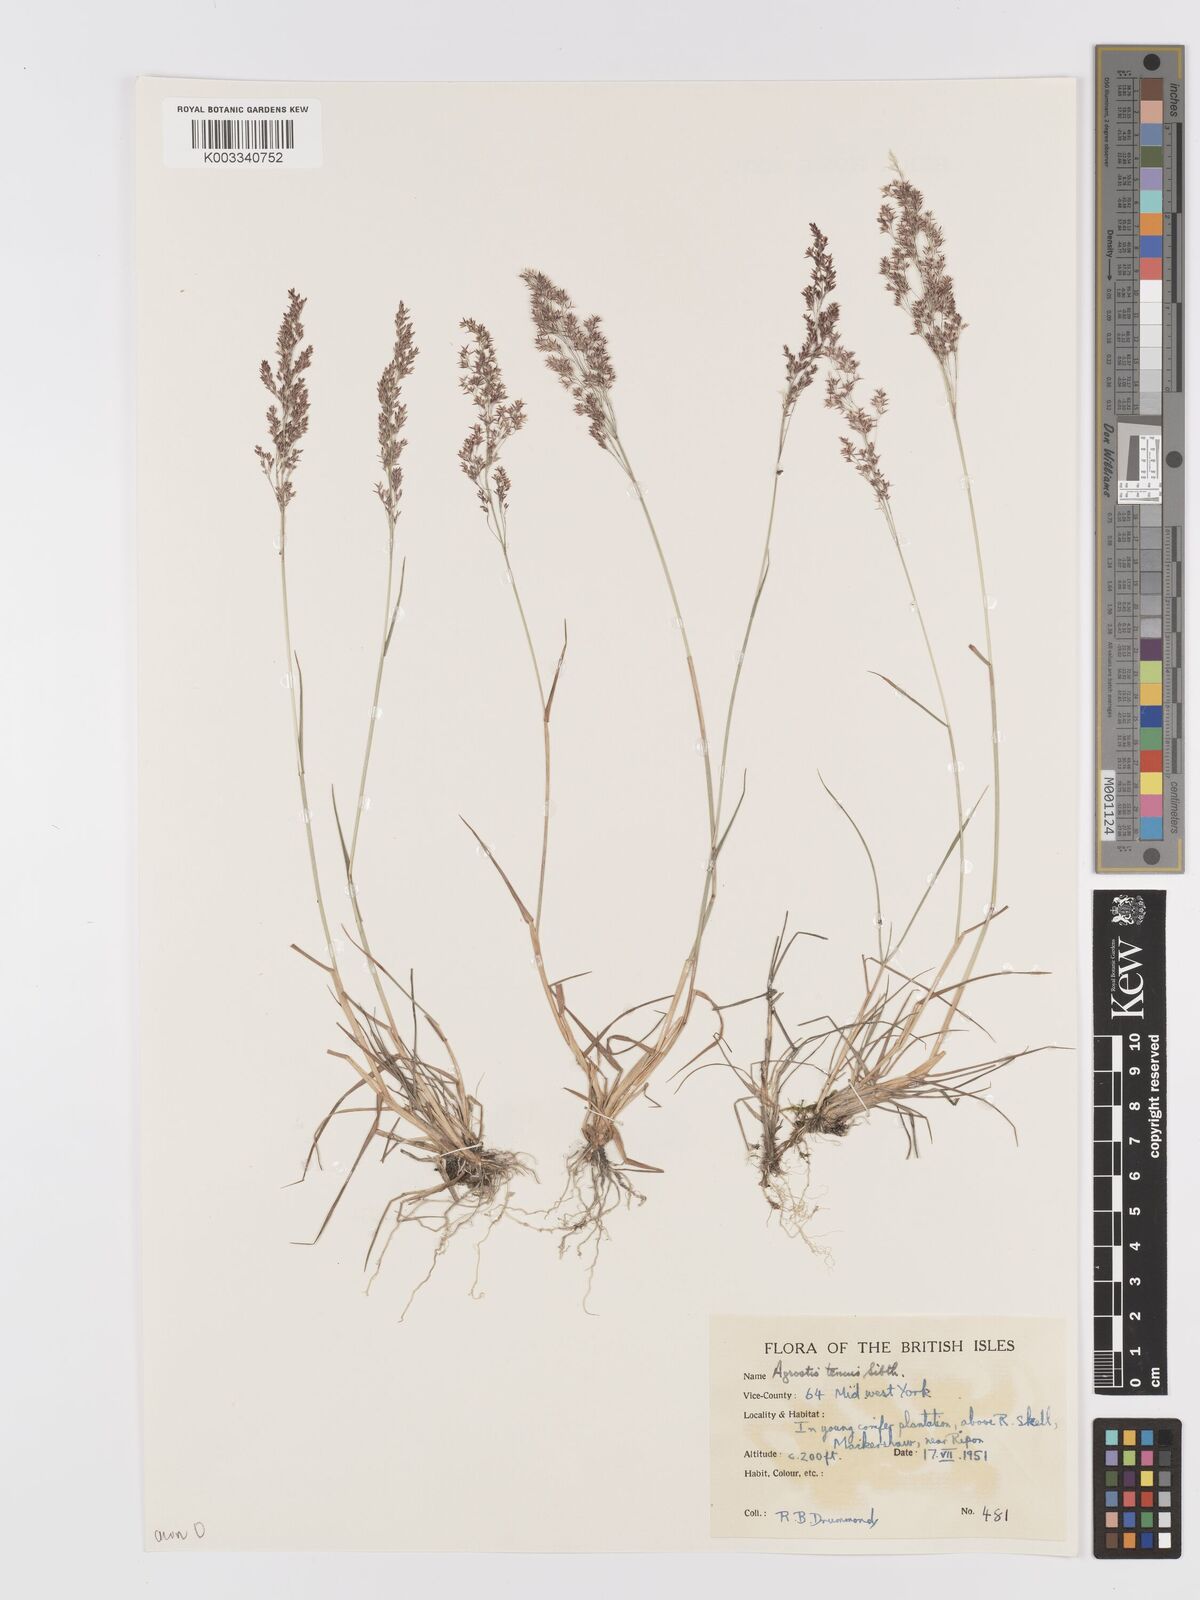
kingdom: Plantae
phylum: Tracheophyta
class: Liliopsida
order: Poales
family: Poaceae
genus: Agrostis
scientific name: Agrostis capillaris
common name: Colonial bentgrass
